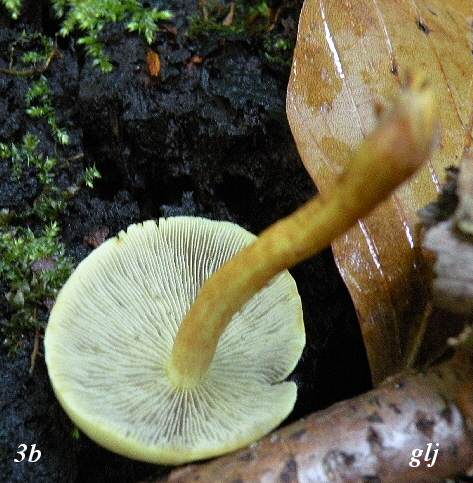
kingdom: Fungi
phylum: Basidiomycota
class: Agaricomycetes
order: Agaricales
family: Strophariaceae
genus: Hypholoma
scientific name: Hypholoma fasciculare
